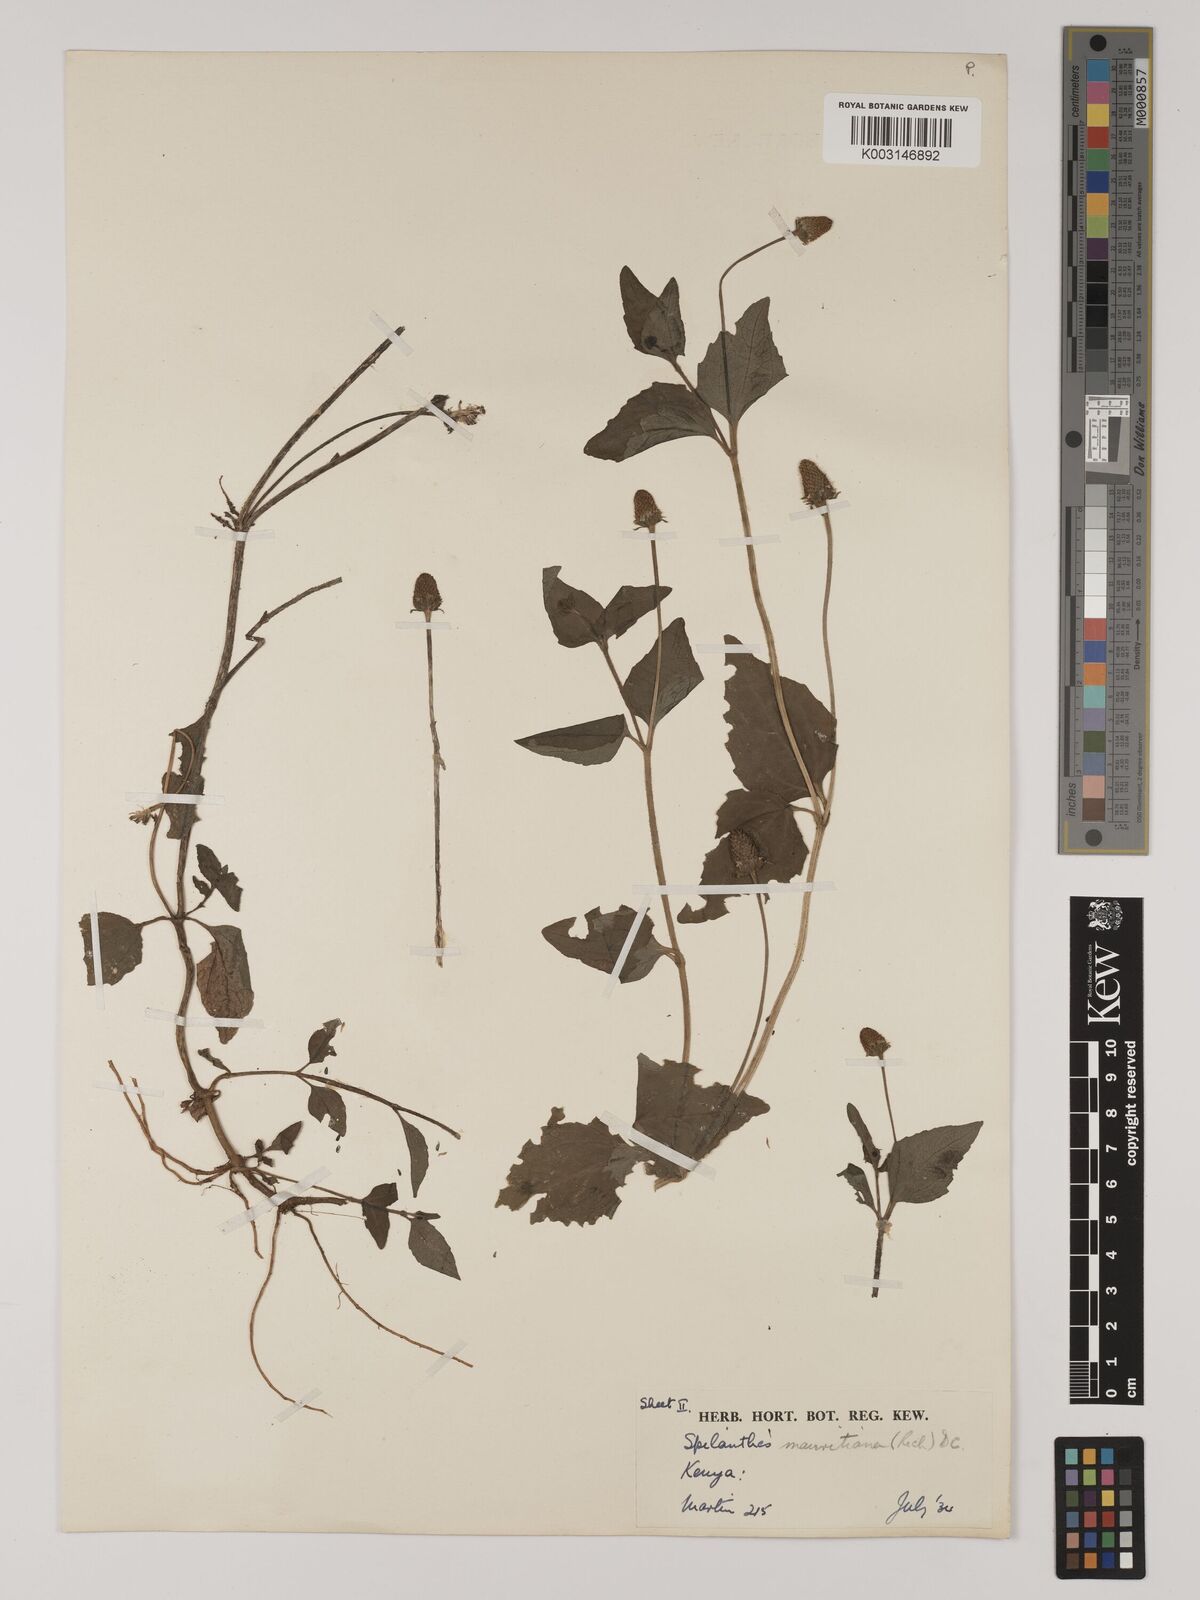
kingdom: Plantae
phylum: Tracheophyta
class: Magnoliopsida
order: Asterales
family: Asteraceae
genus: Acmella
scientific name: Acmella caulirhiza
